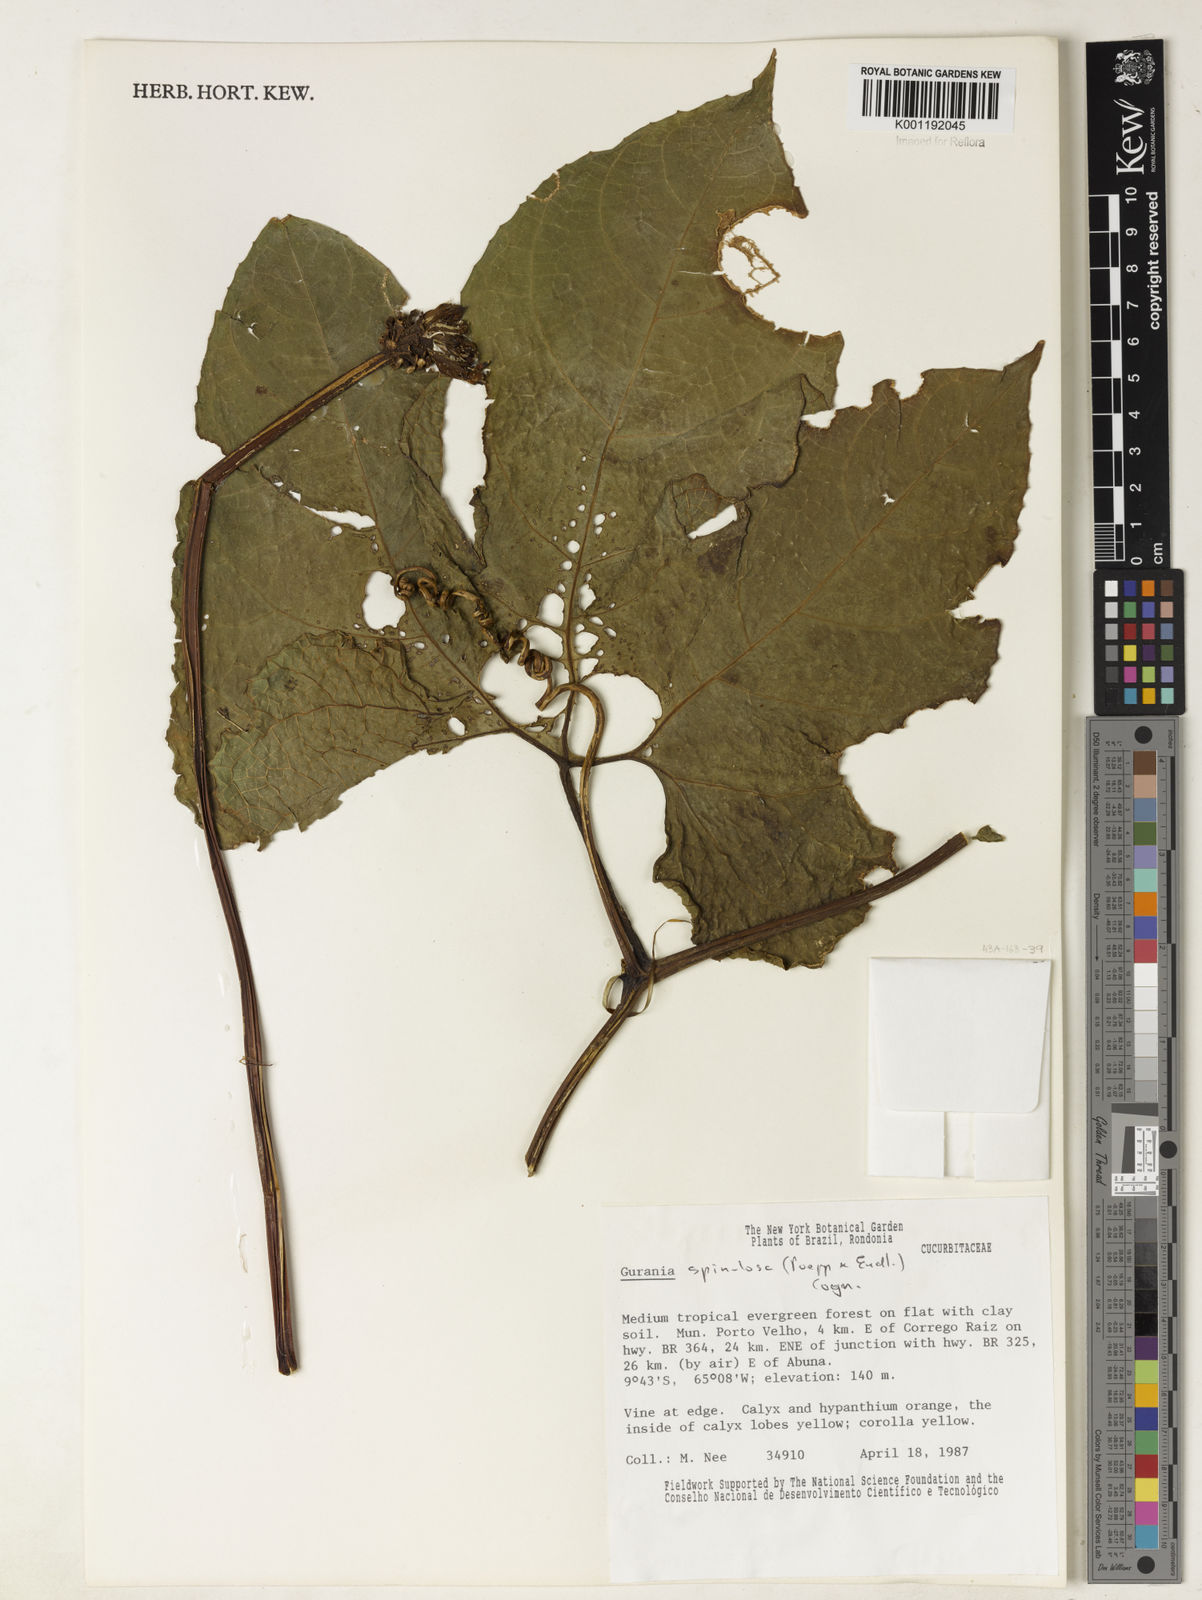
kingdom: Plantae
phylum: Tracheophyta
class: Magnoliopsida
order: Cucurbitales
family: Cucurbitaceae
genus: Gurania
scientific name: Gurania lobata
